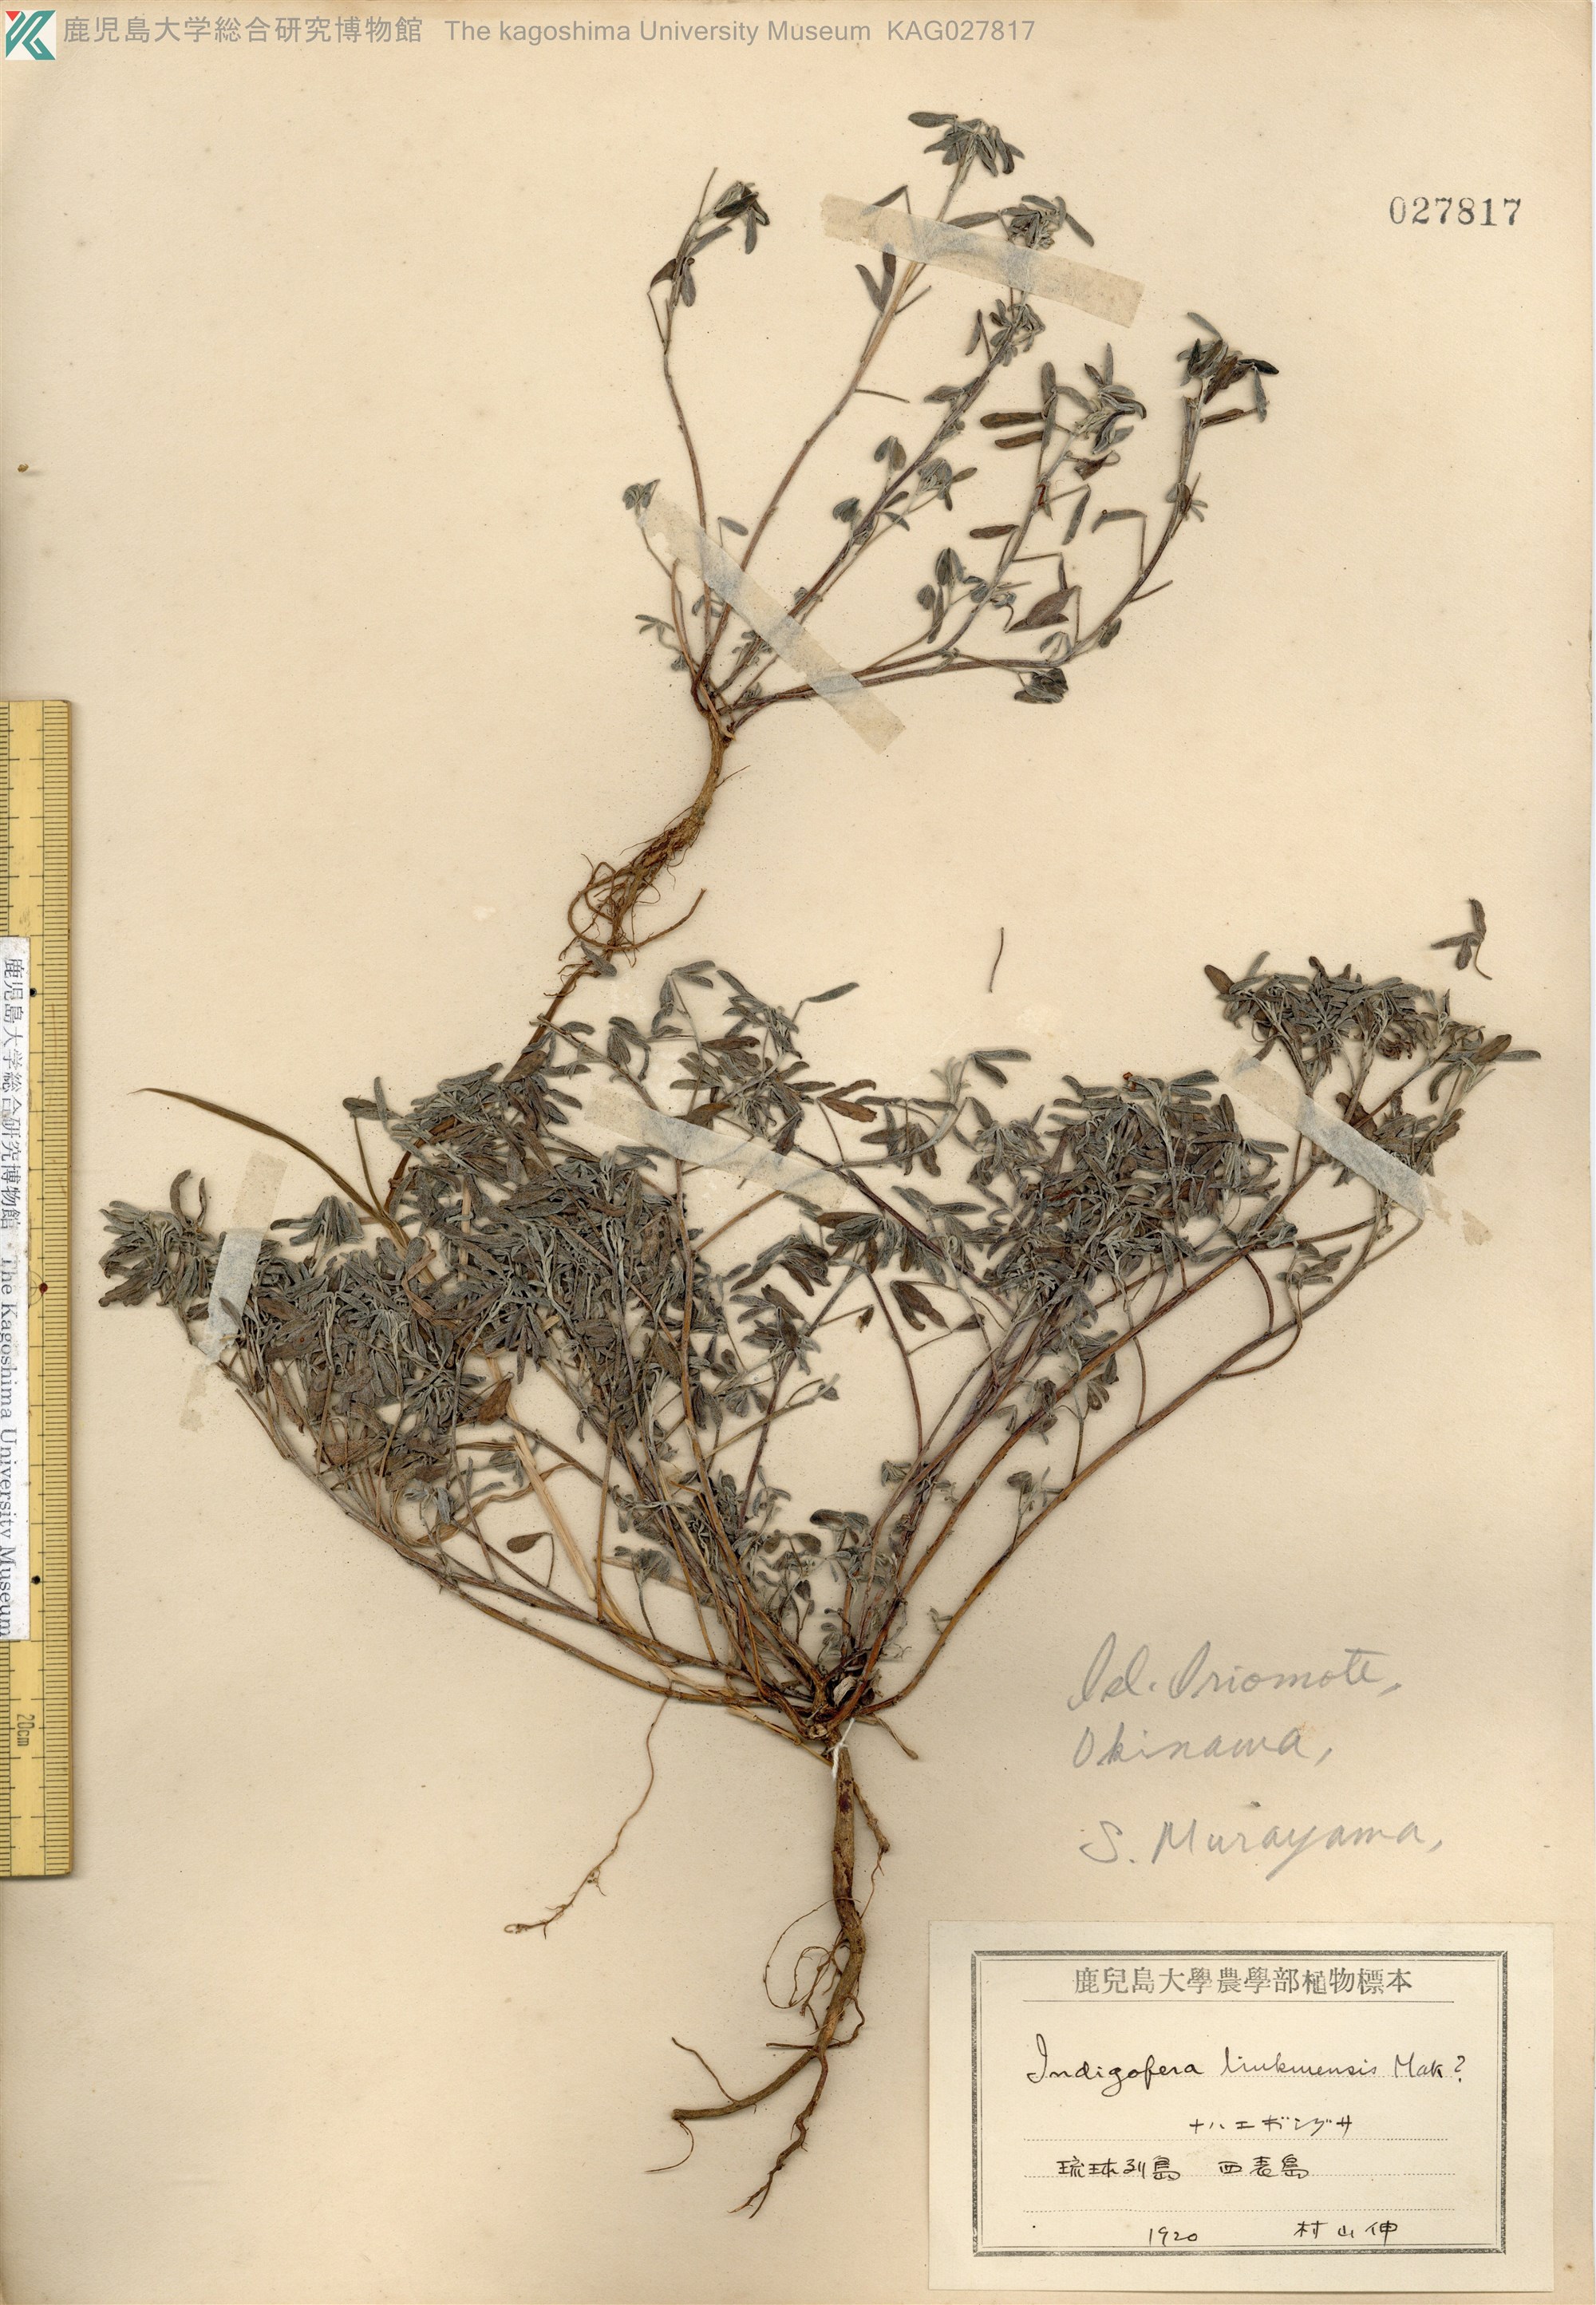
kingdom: Plantae
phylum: Tracheophyta
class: Magnoliopsida
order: Fabales
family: Fabaceae
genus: Indigofera
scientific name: Indigofera trifoliata
